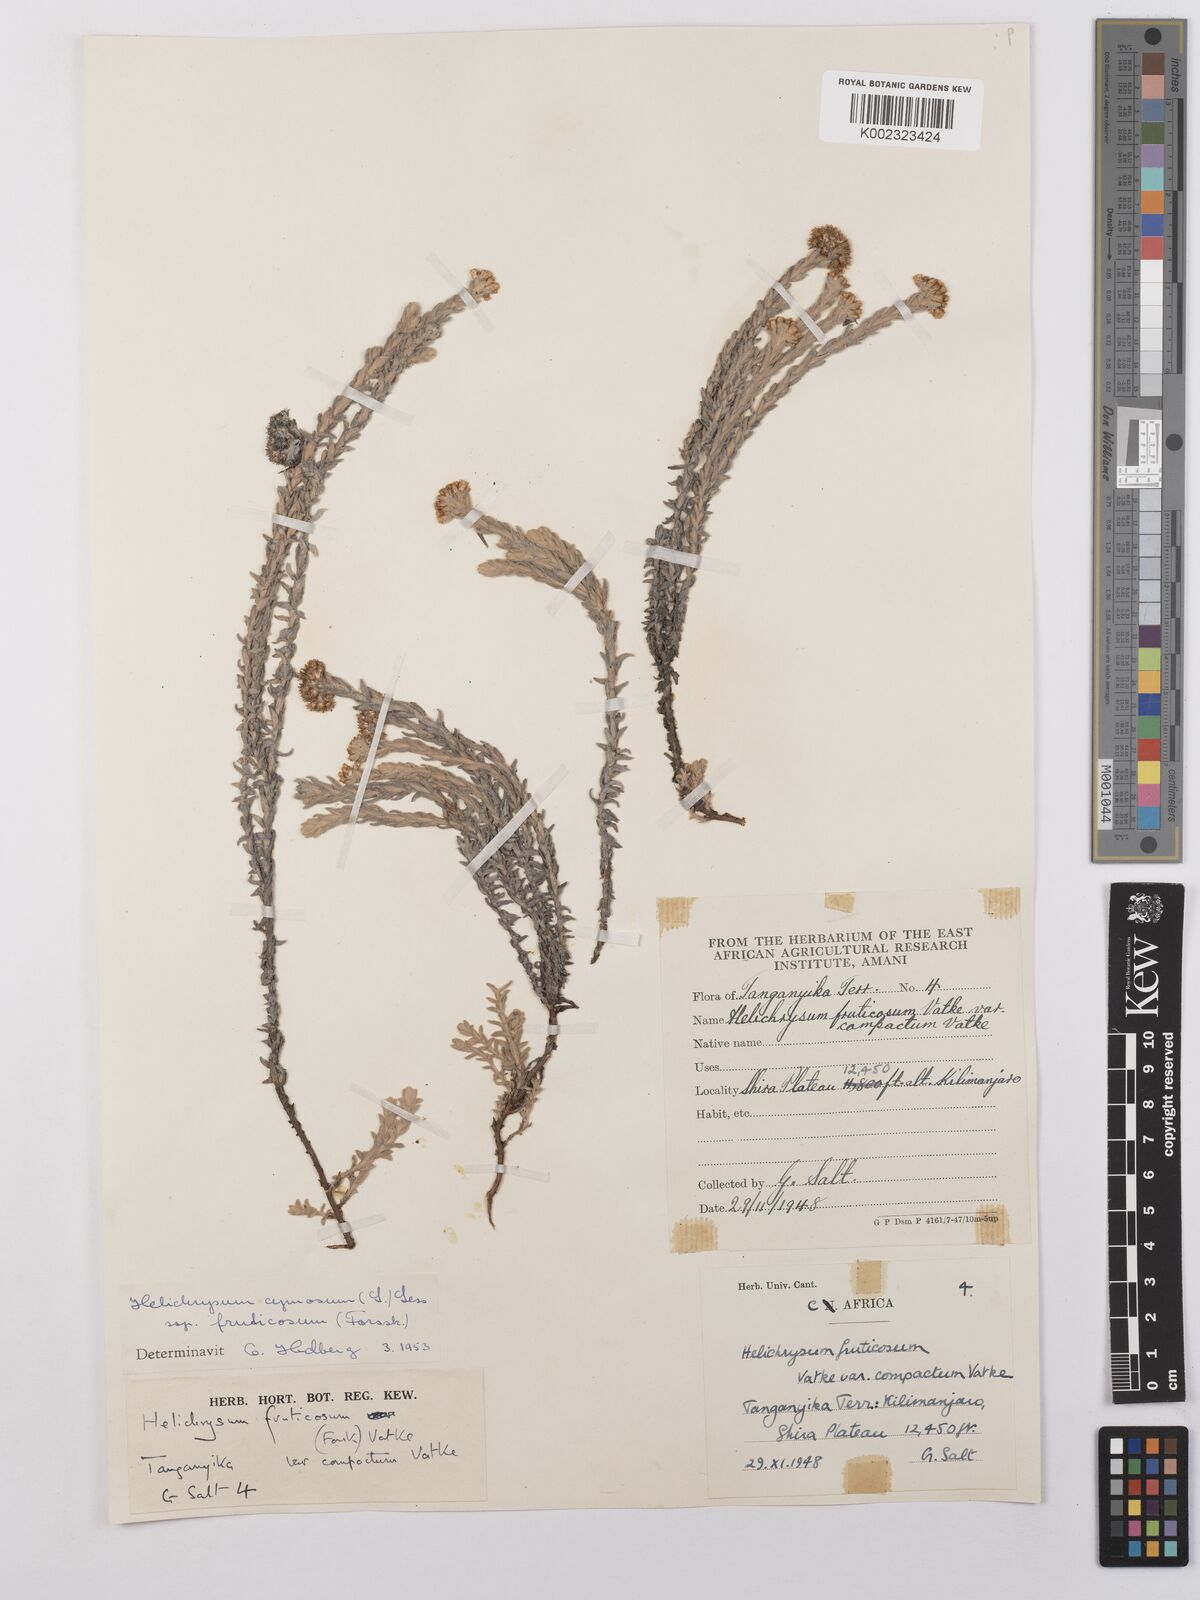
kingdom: Plantae
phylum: Tracheophyta
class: Magnoliopsida
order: Asterales
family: Asteraceae
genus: Helichrysum
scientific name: Helichrysum forskahlii
